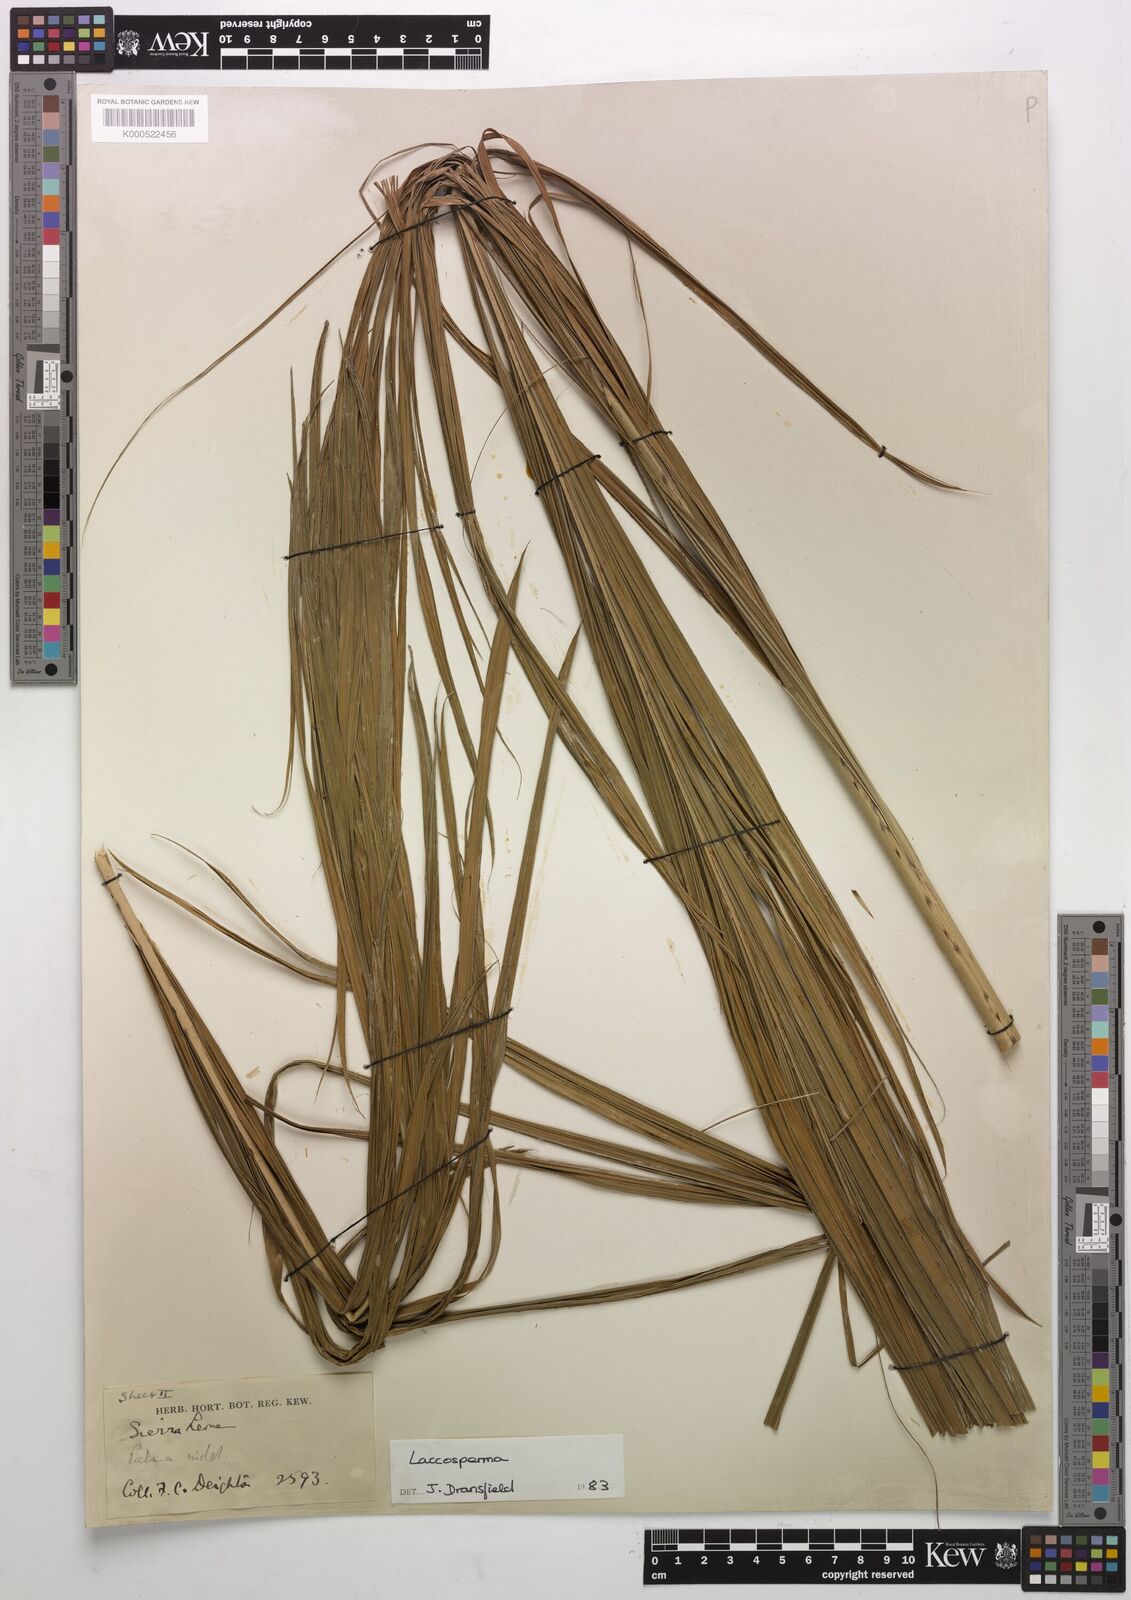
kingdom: Plantae
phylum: Tracheophyta
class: Liliopsida
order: Arecales
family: Arecaceae
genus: Laccosperma
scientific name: Laccosperma
